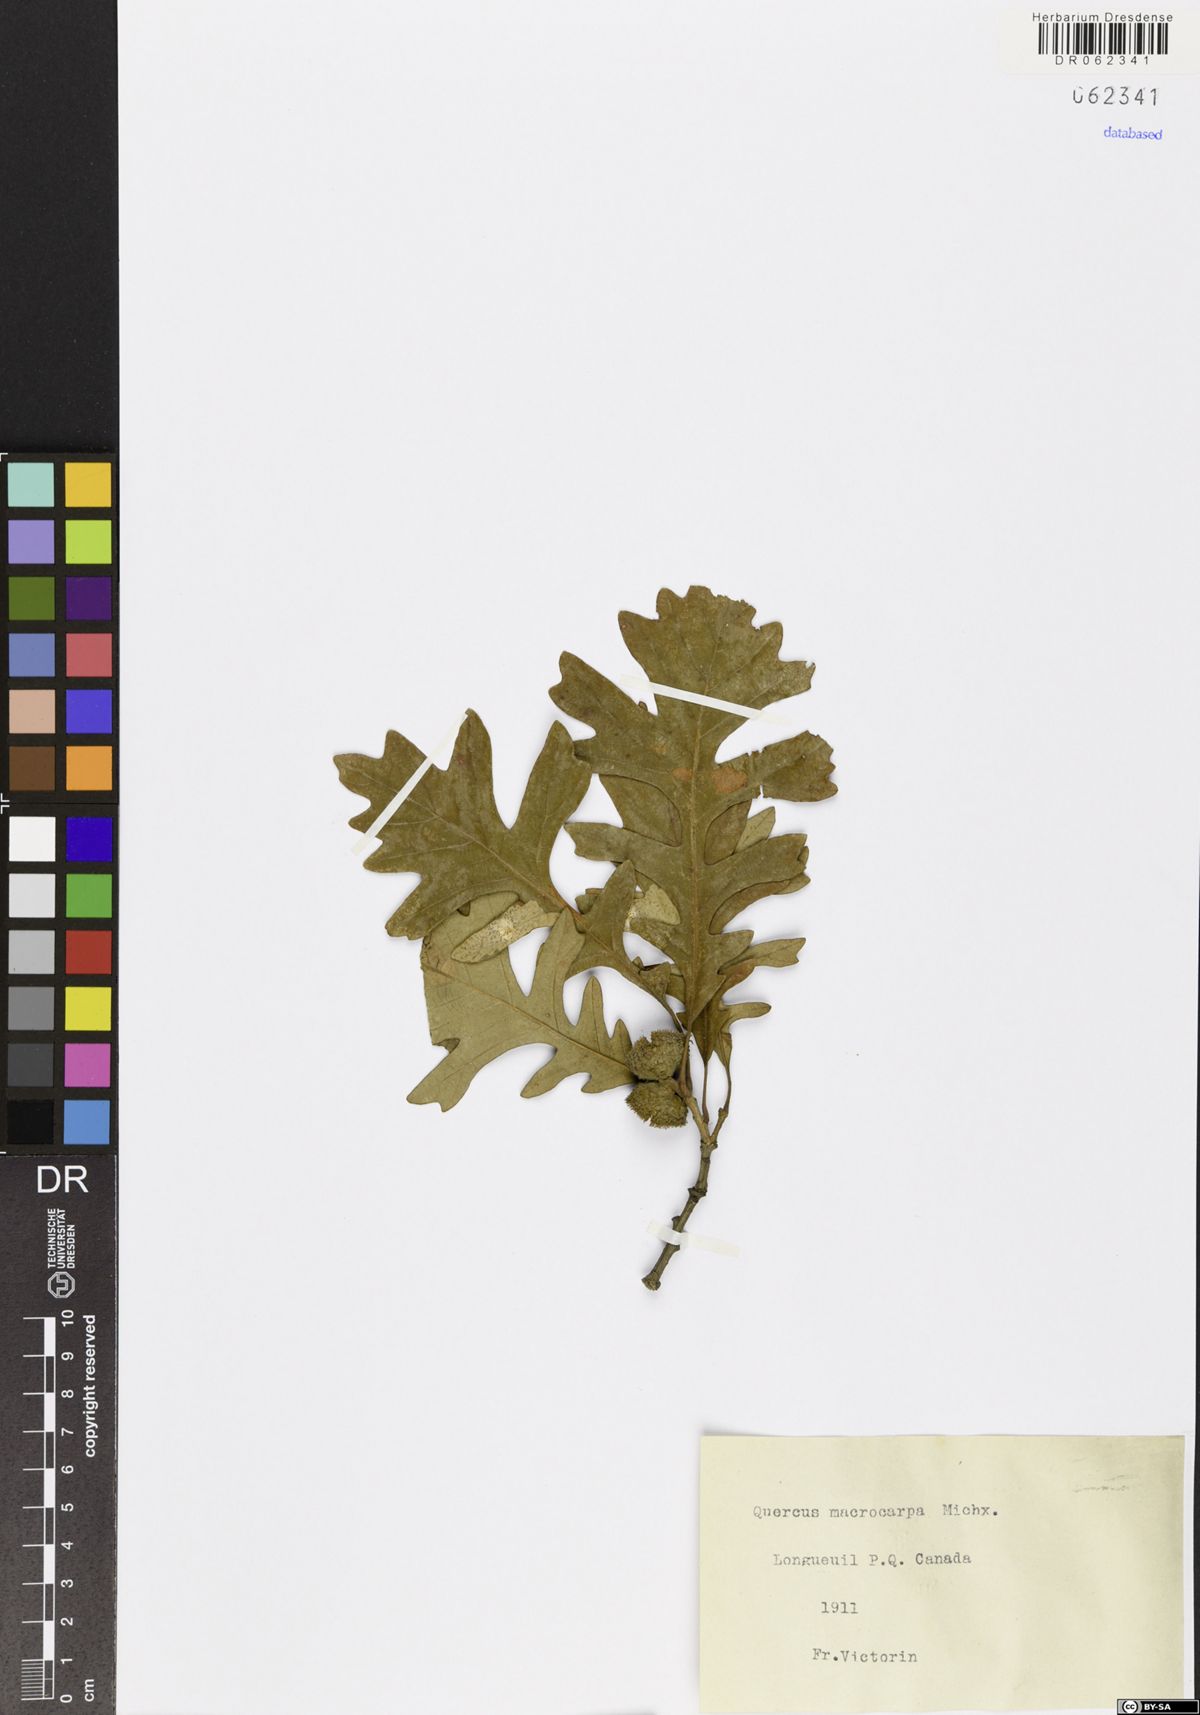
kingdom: Plantae
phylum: Tracheophyta
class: Magnoliopsida
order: Fagales
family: Fagaceae
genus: Quercus
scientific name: Quercus macrocarpa
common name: Bur oak
